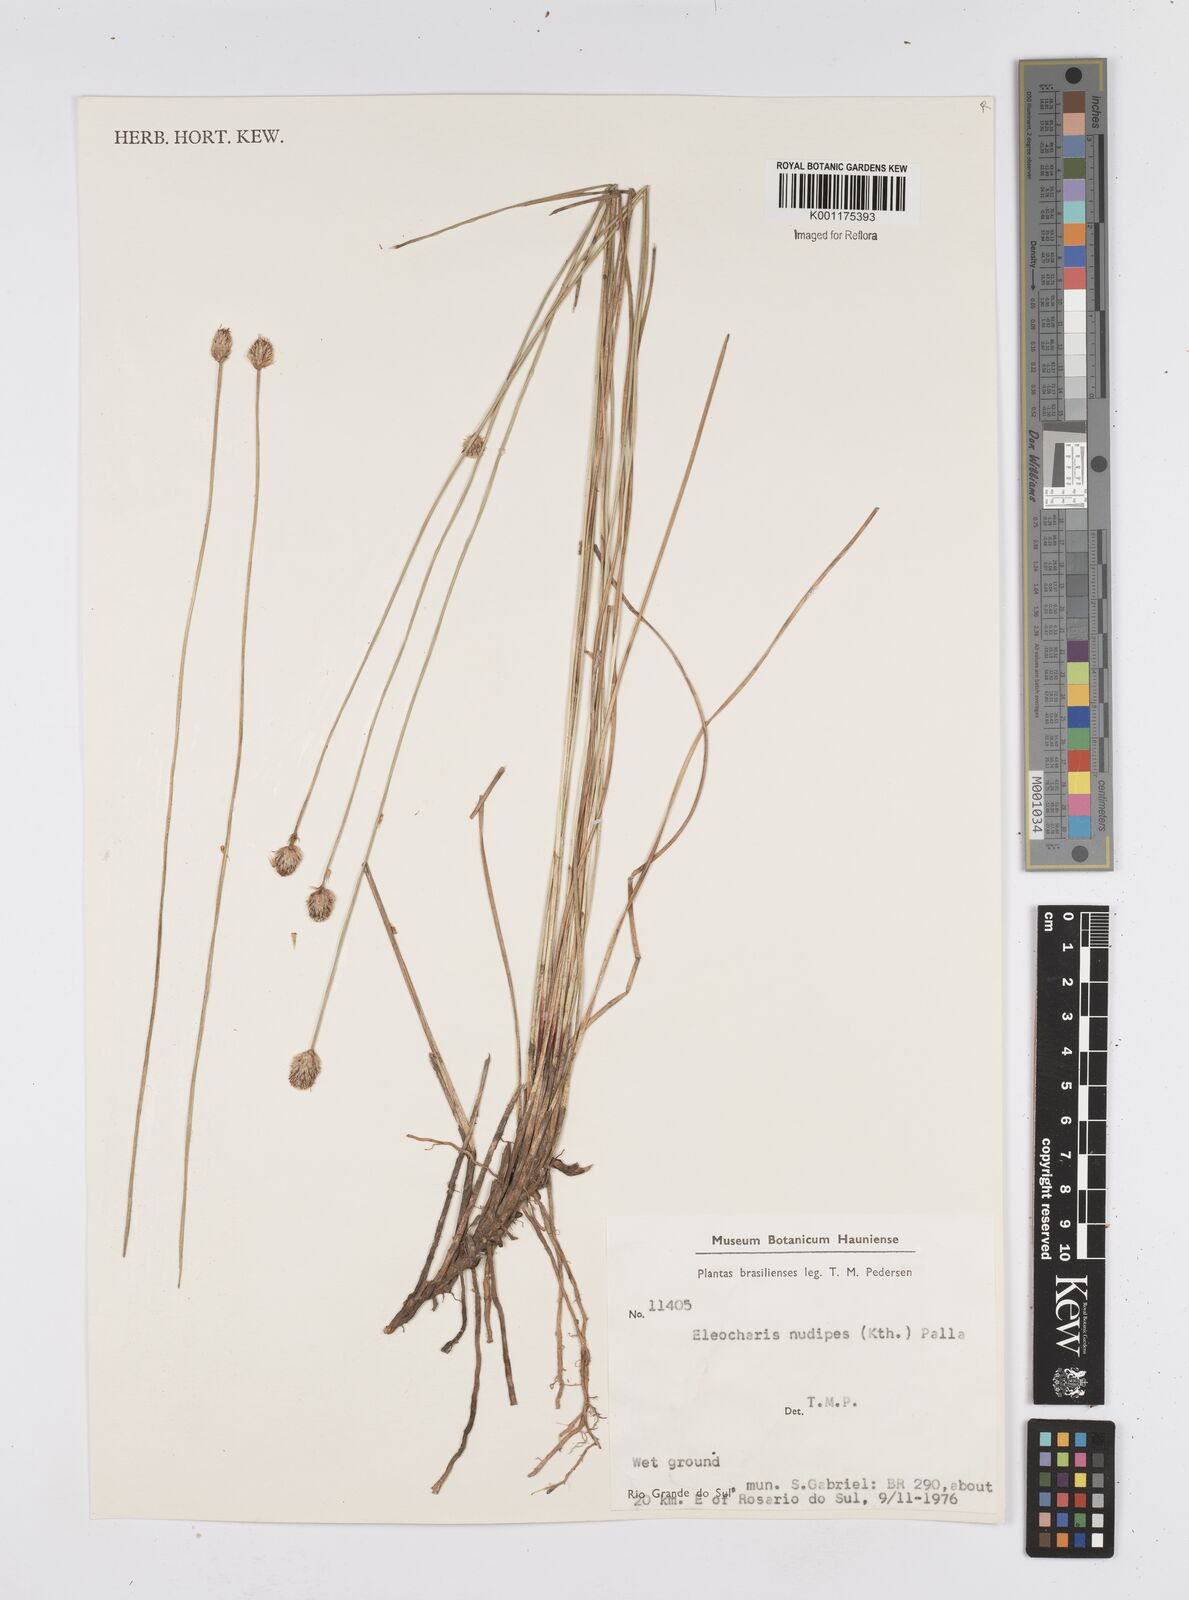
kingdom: Plantae
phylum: Tracheophyta
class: Liliopsida
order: Poales
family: Cyperaceae
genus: Eleocharis
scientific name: Eleocharis nudipes
